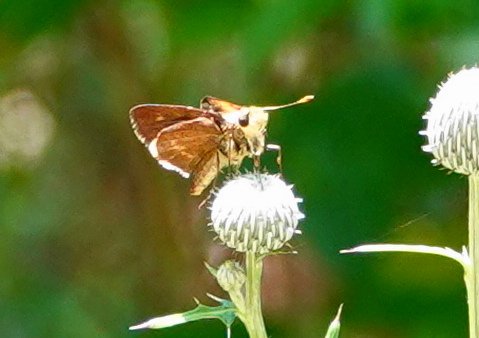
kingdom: Animalia
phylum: Arthropoda
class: Insecta
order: Lepidoptera
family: Hesperiidae
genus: Wallengrenia
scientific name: Wallengrenia otho
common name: Southern Broken-Dash
